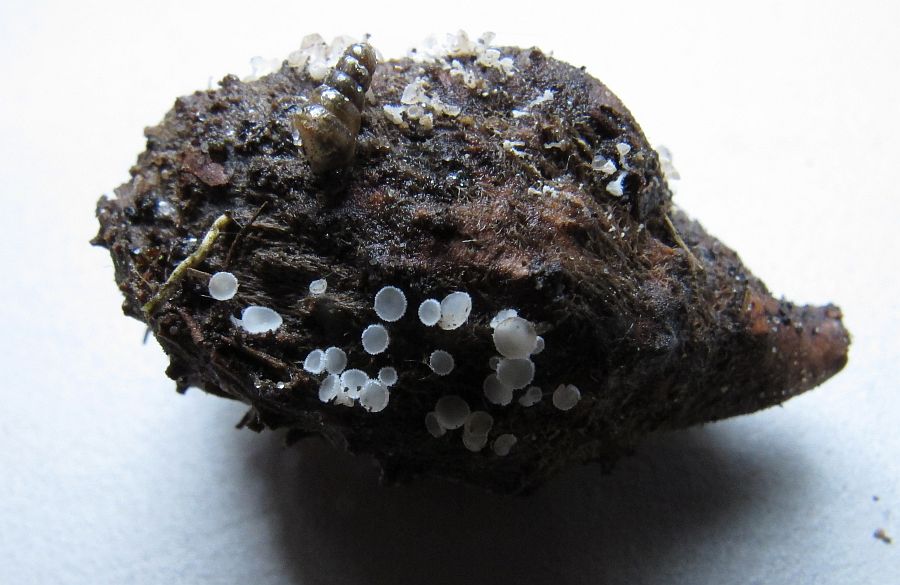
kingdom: Fungi
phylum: Ascomycota
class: Leotiomycetes
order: Helotiales
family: Lachnaceae
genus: Lachnum
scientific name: Lachnum virgineum
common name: jomfru-frynseskive
